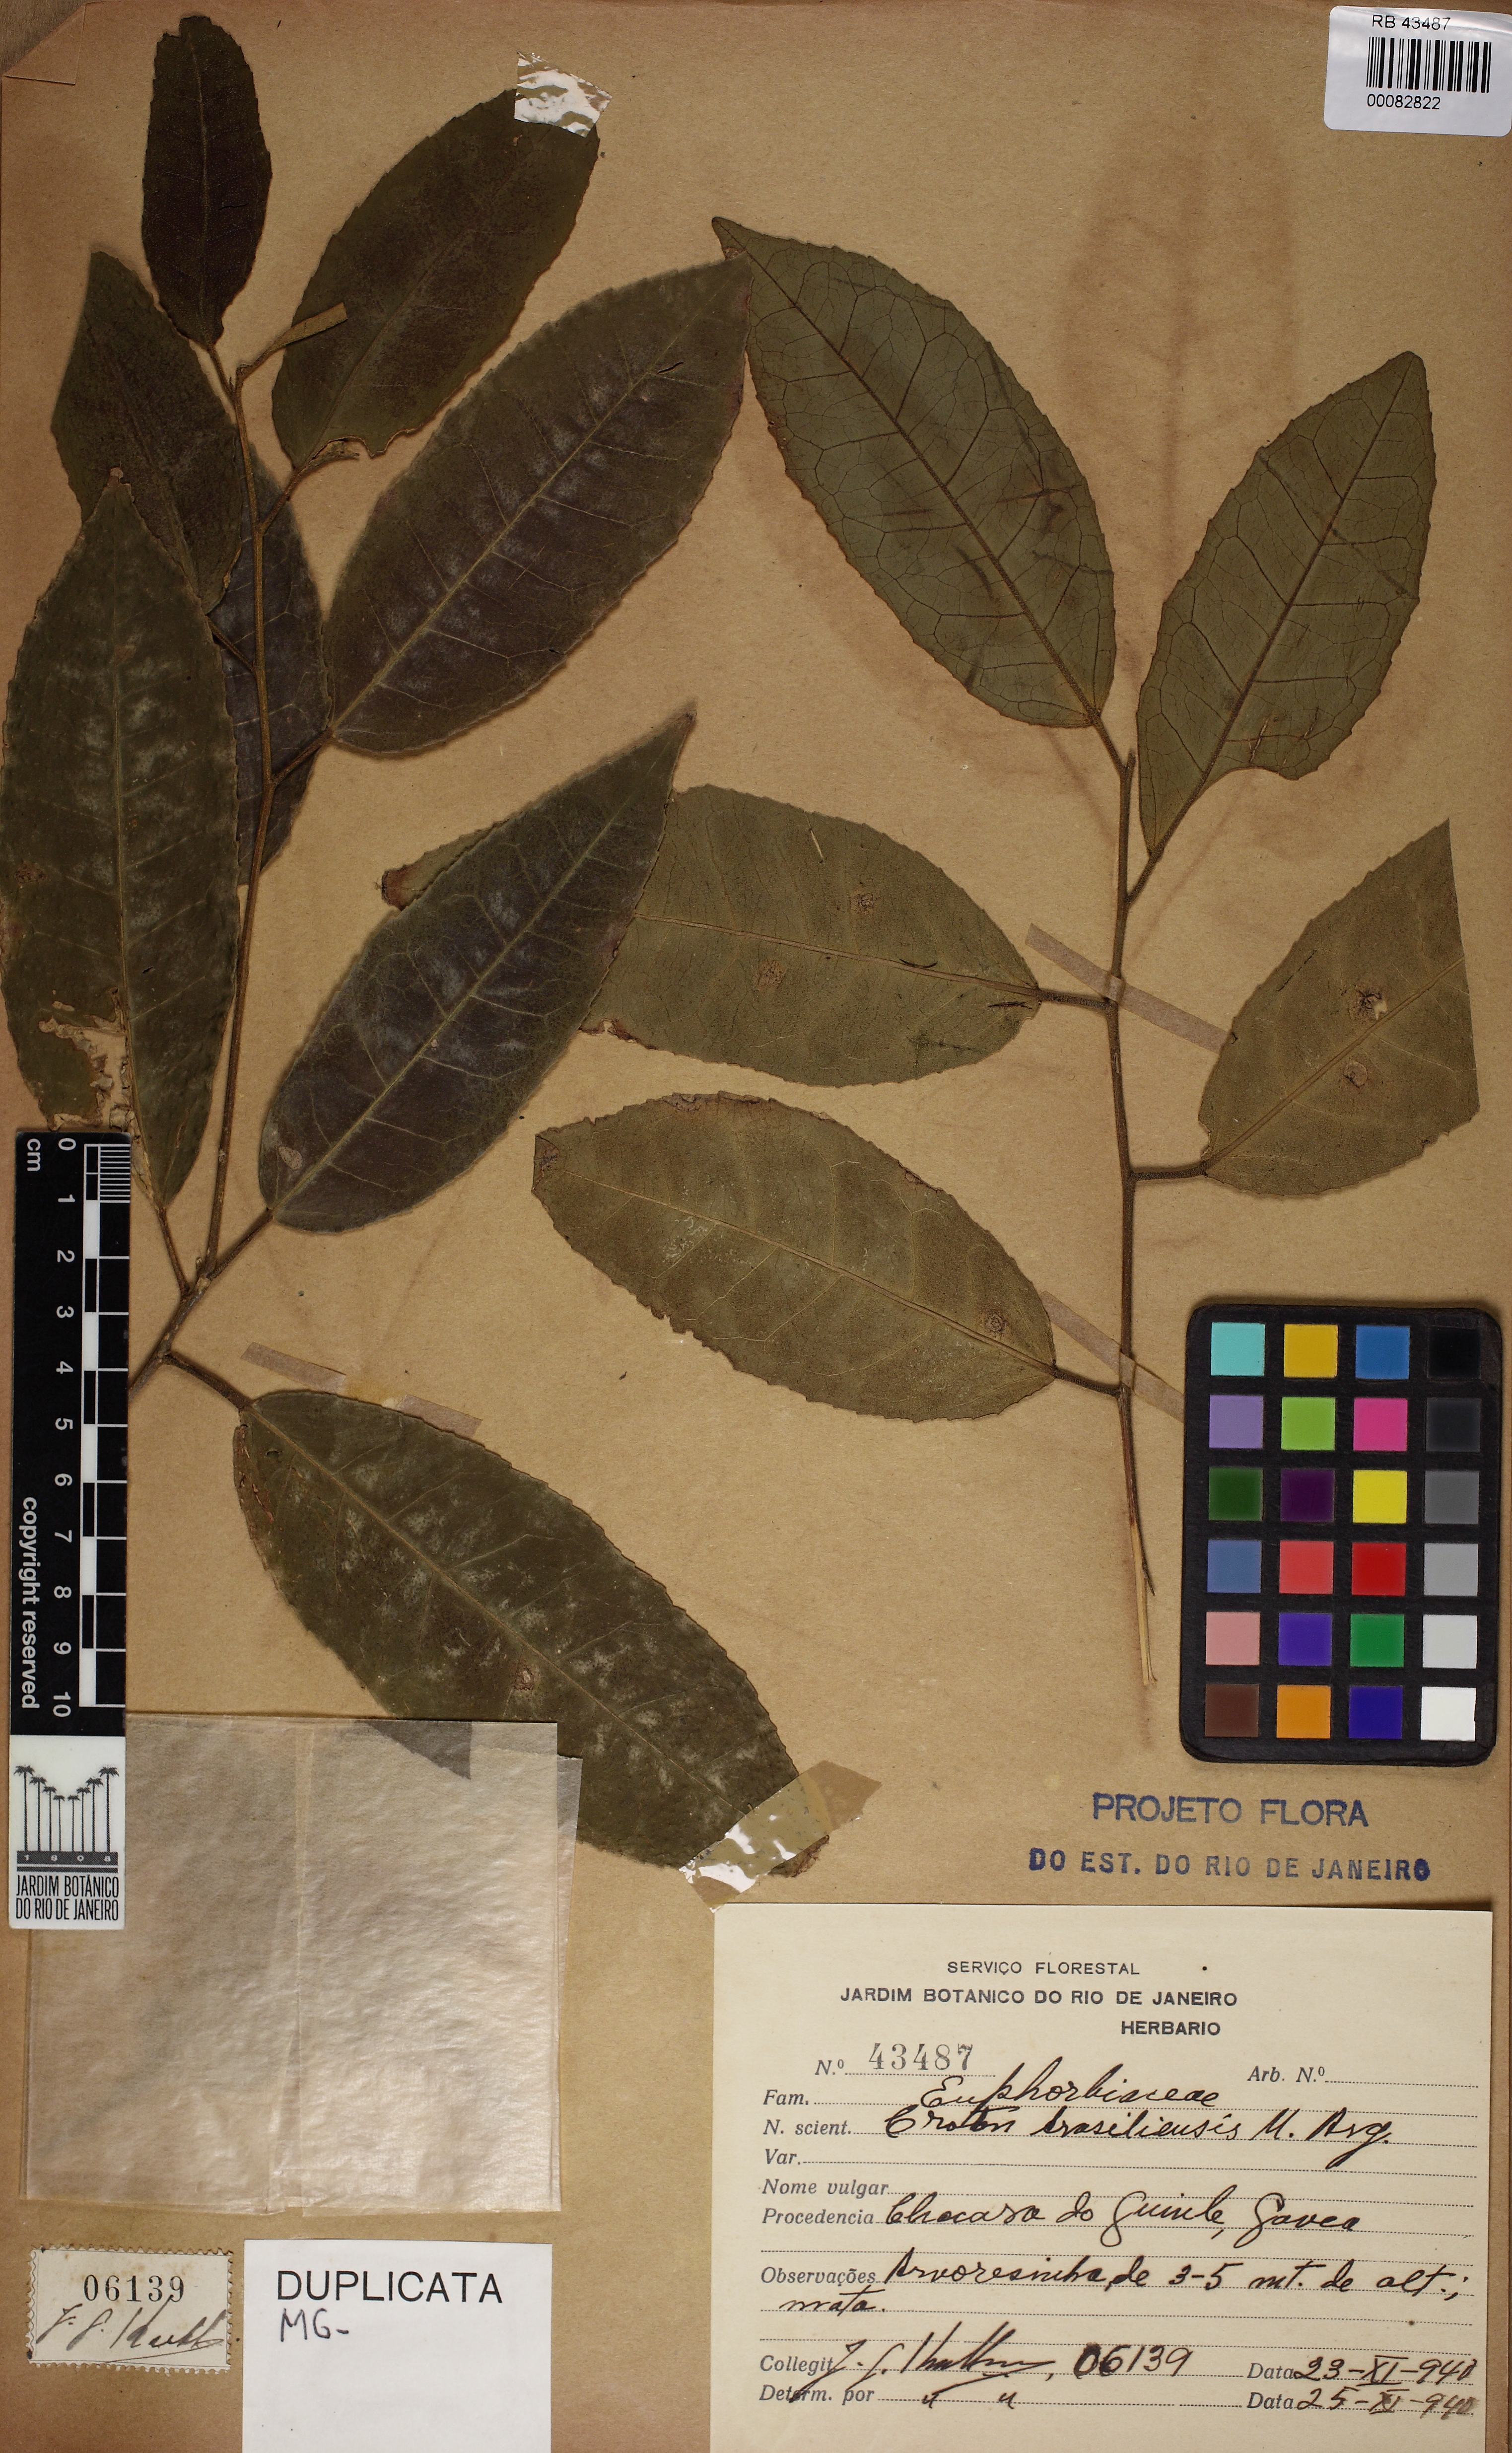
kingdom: Plantae
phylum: Tracheophyta
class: Magnoliopsida
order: Malpighiales
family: Euphorbiaceae
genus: Croton
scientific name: Croton polyandrus
